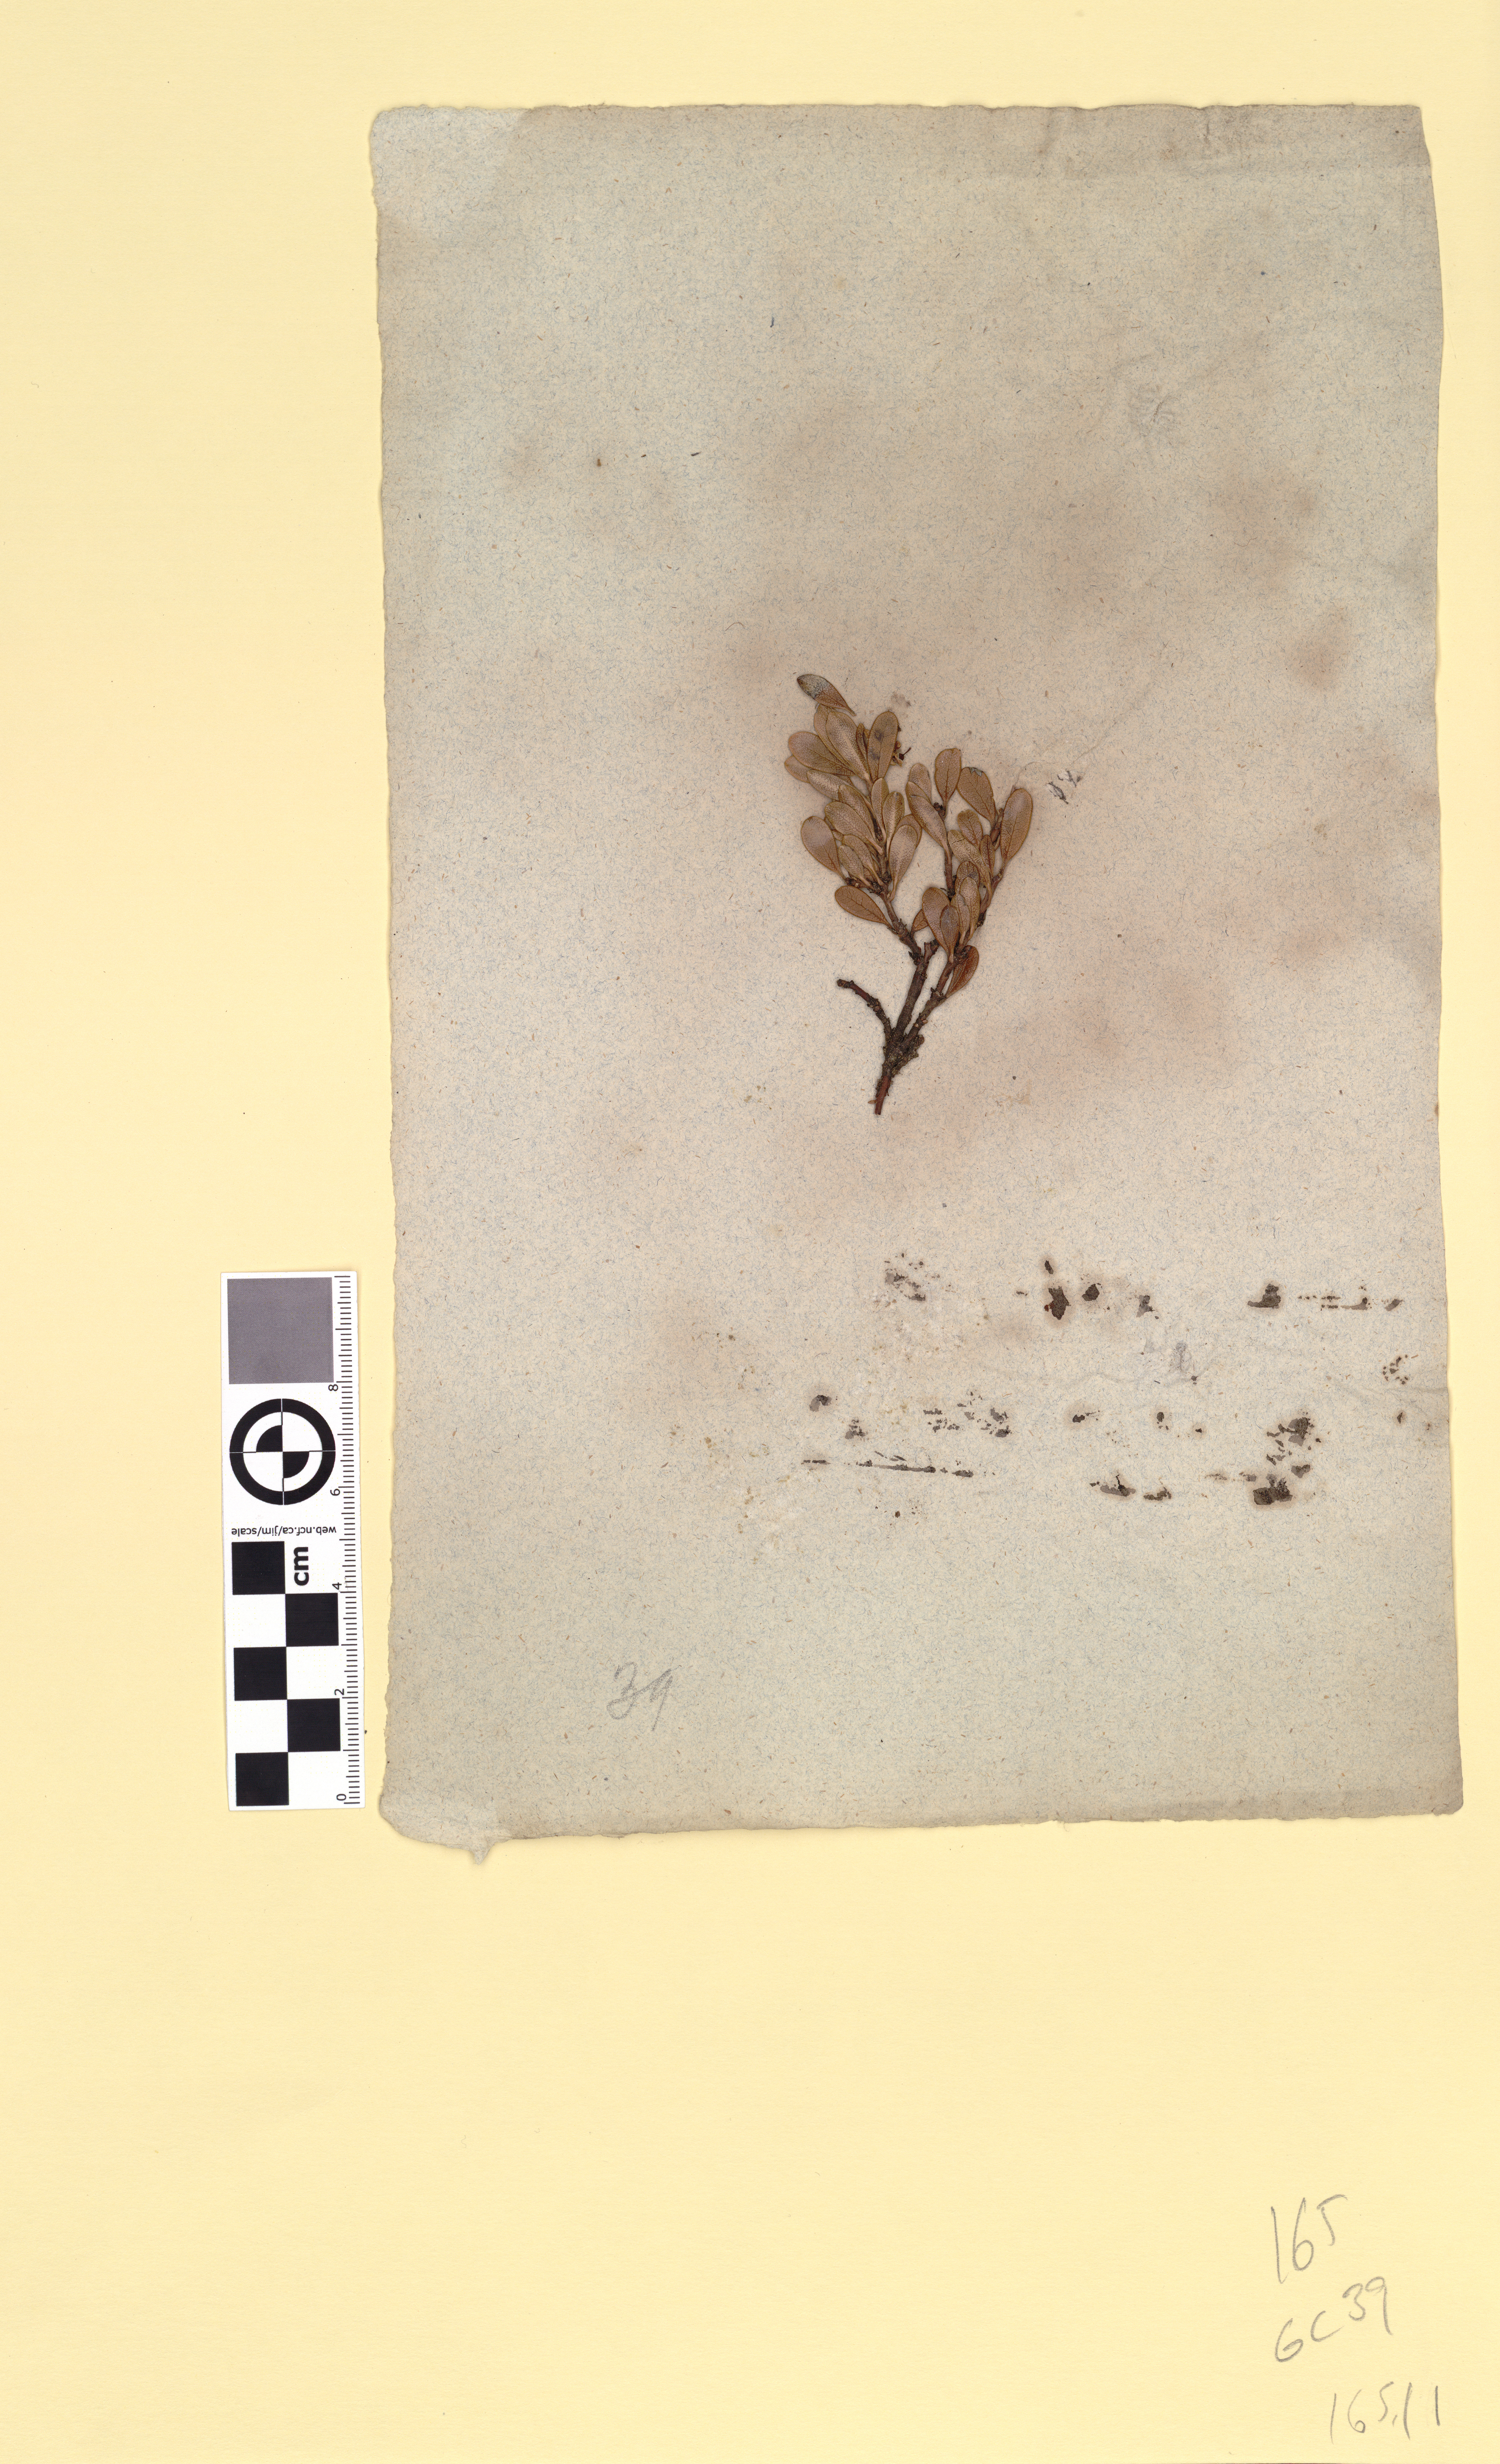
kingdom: Plantae
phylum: Tracheophyta
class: Magnoliopsida
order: Ericales
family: Ericaceae
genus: Arctostaphylos
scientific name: Arctostaphylos uva-ursi
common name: Bearberry
